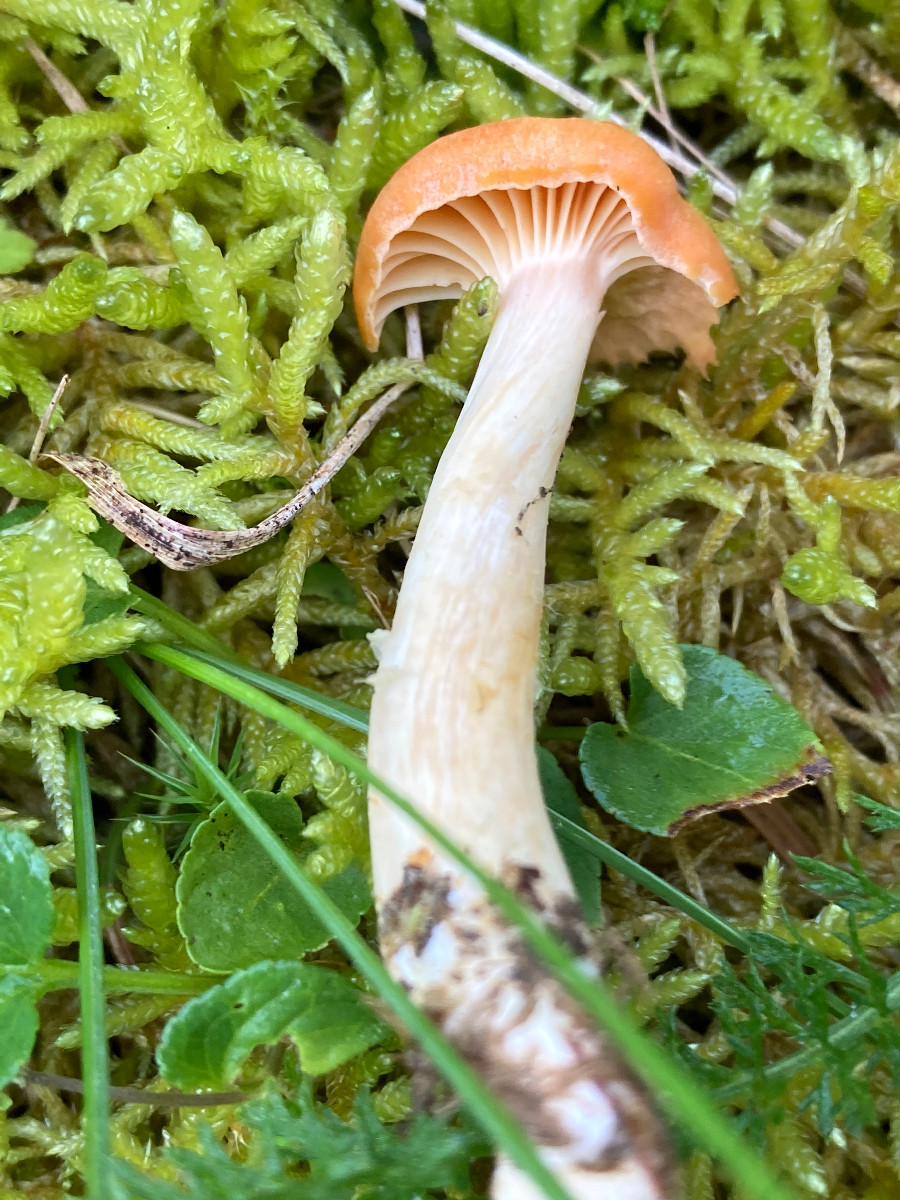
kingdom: Fungi
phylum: Basidiomycota
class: Agaricomycetes
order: Agaricales
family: Hygrophoraceae
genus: Cuphophyllus
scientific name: Cuphophyllus pratensis
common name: eng-vokshat
